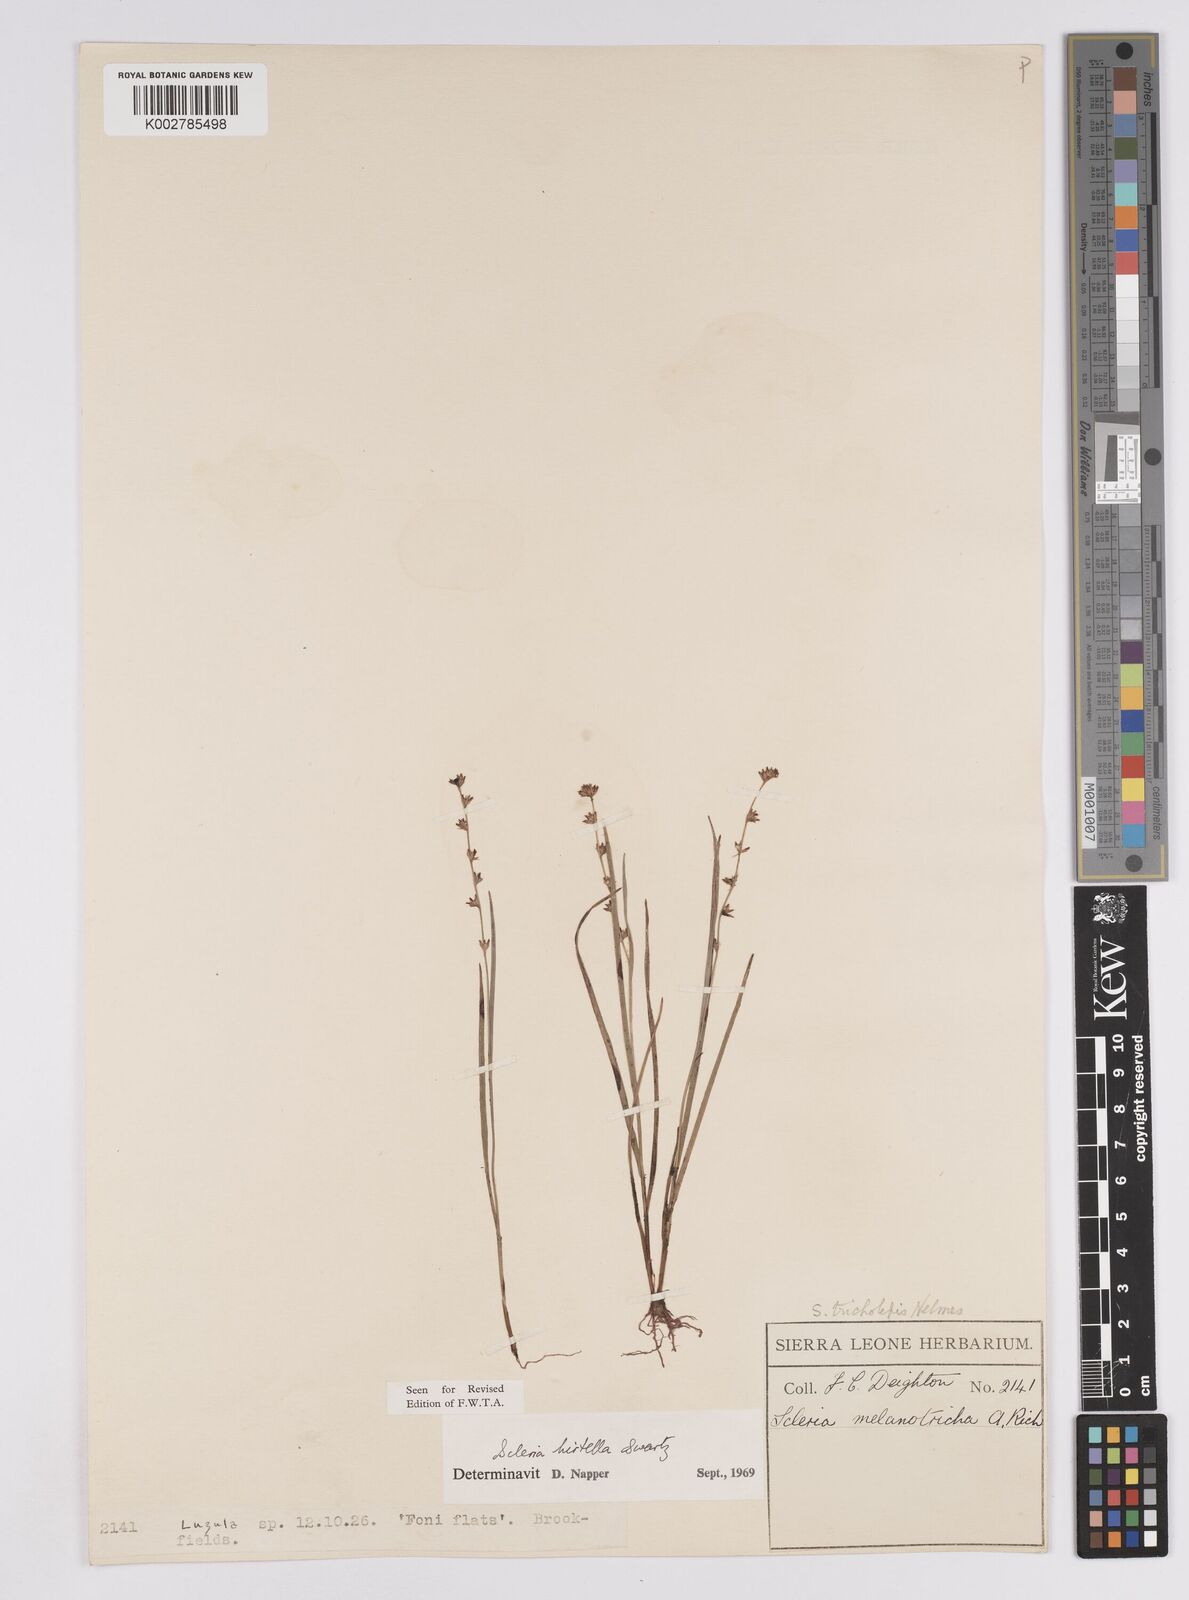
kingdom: Plantae
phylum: Tracheophyta
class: Liliopsida
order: Poales
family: Cyperaceae
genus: Scleria
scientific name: Scleria tricholepis
